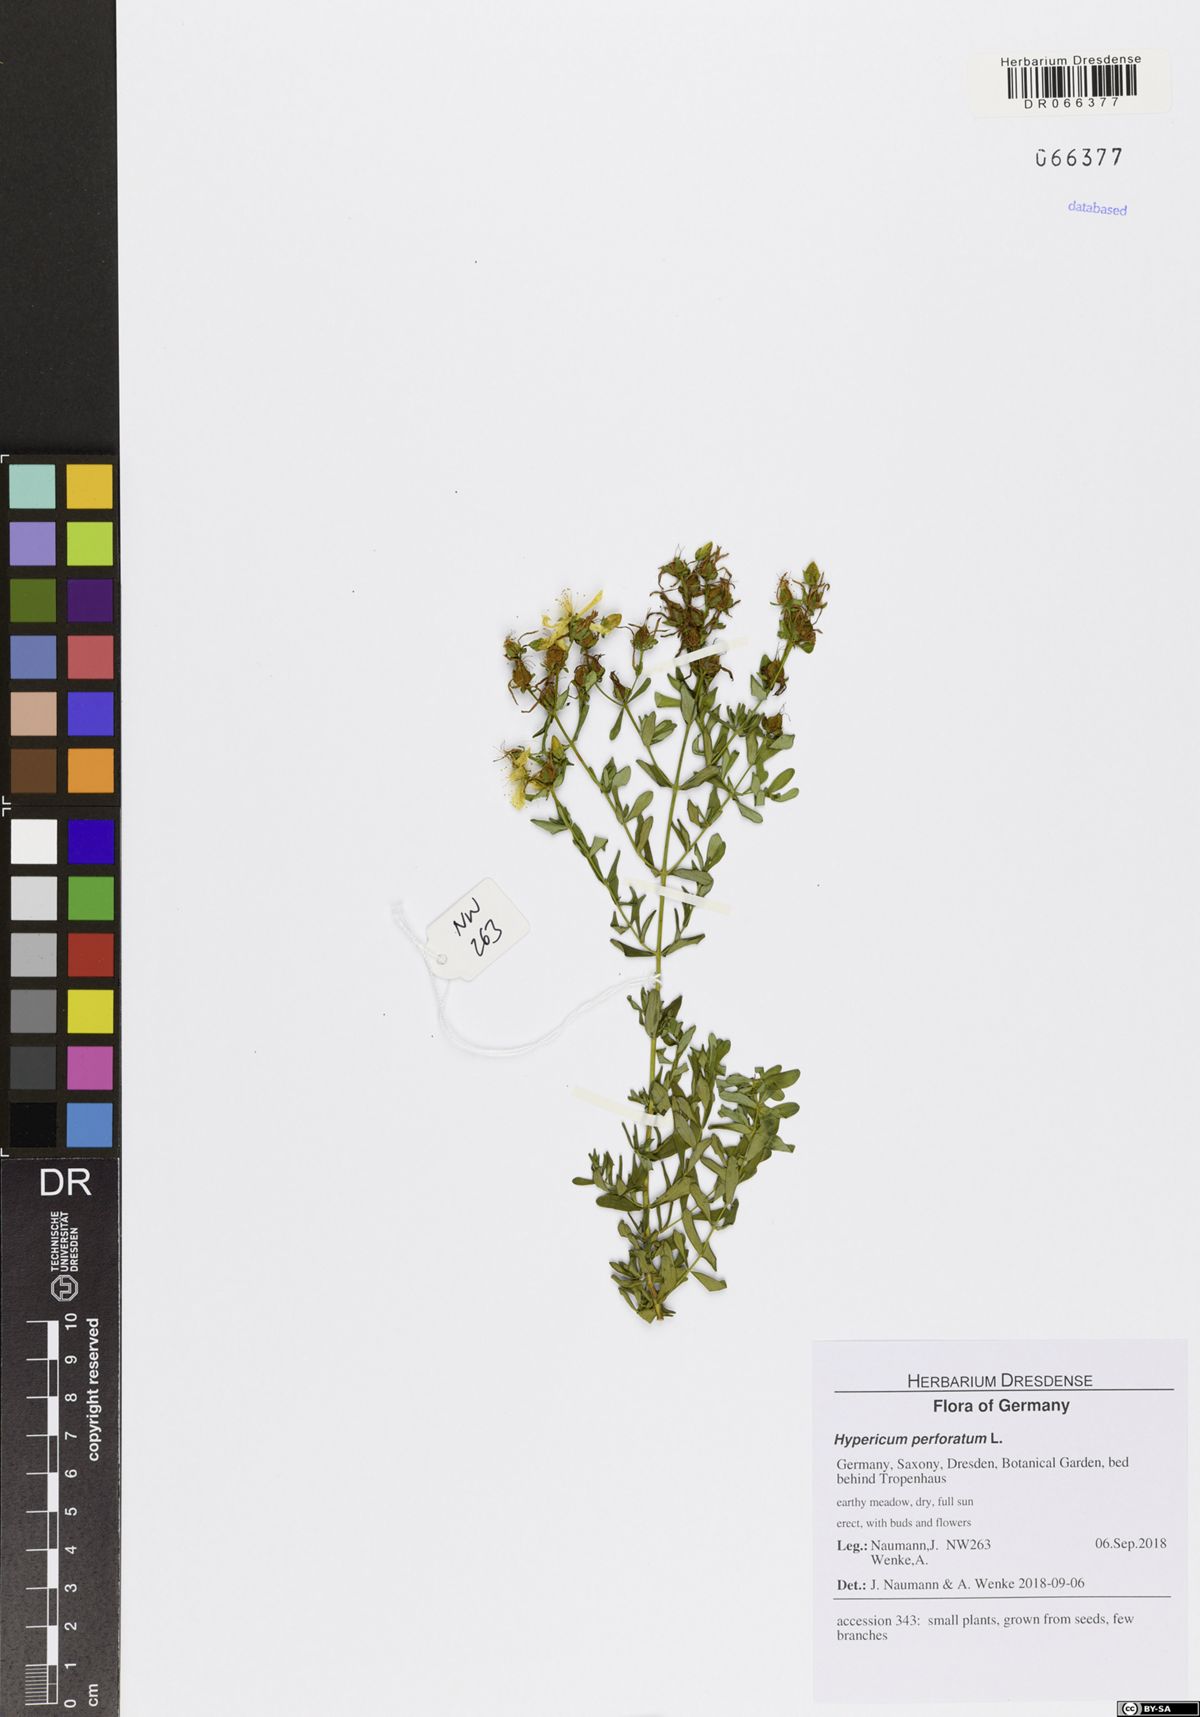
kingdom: Plantae
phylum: Tracheophyta
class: Magnoliopsida
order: Malpighiales
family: Hypericaceae
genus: Hypericum
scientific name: Hypericum perforatum
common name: Common st. johnswort
